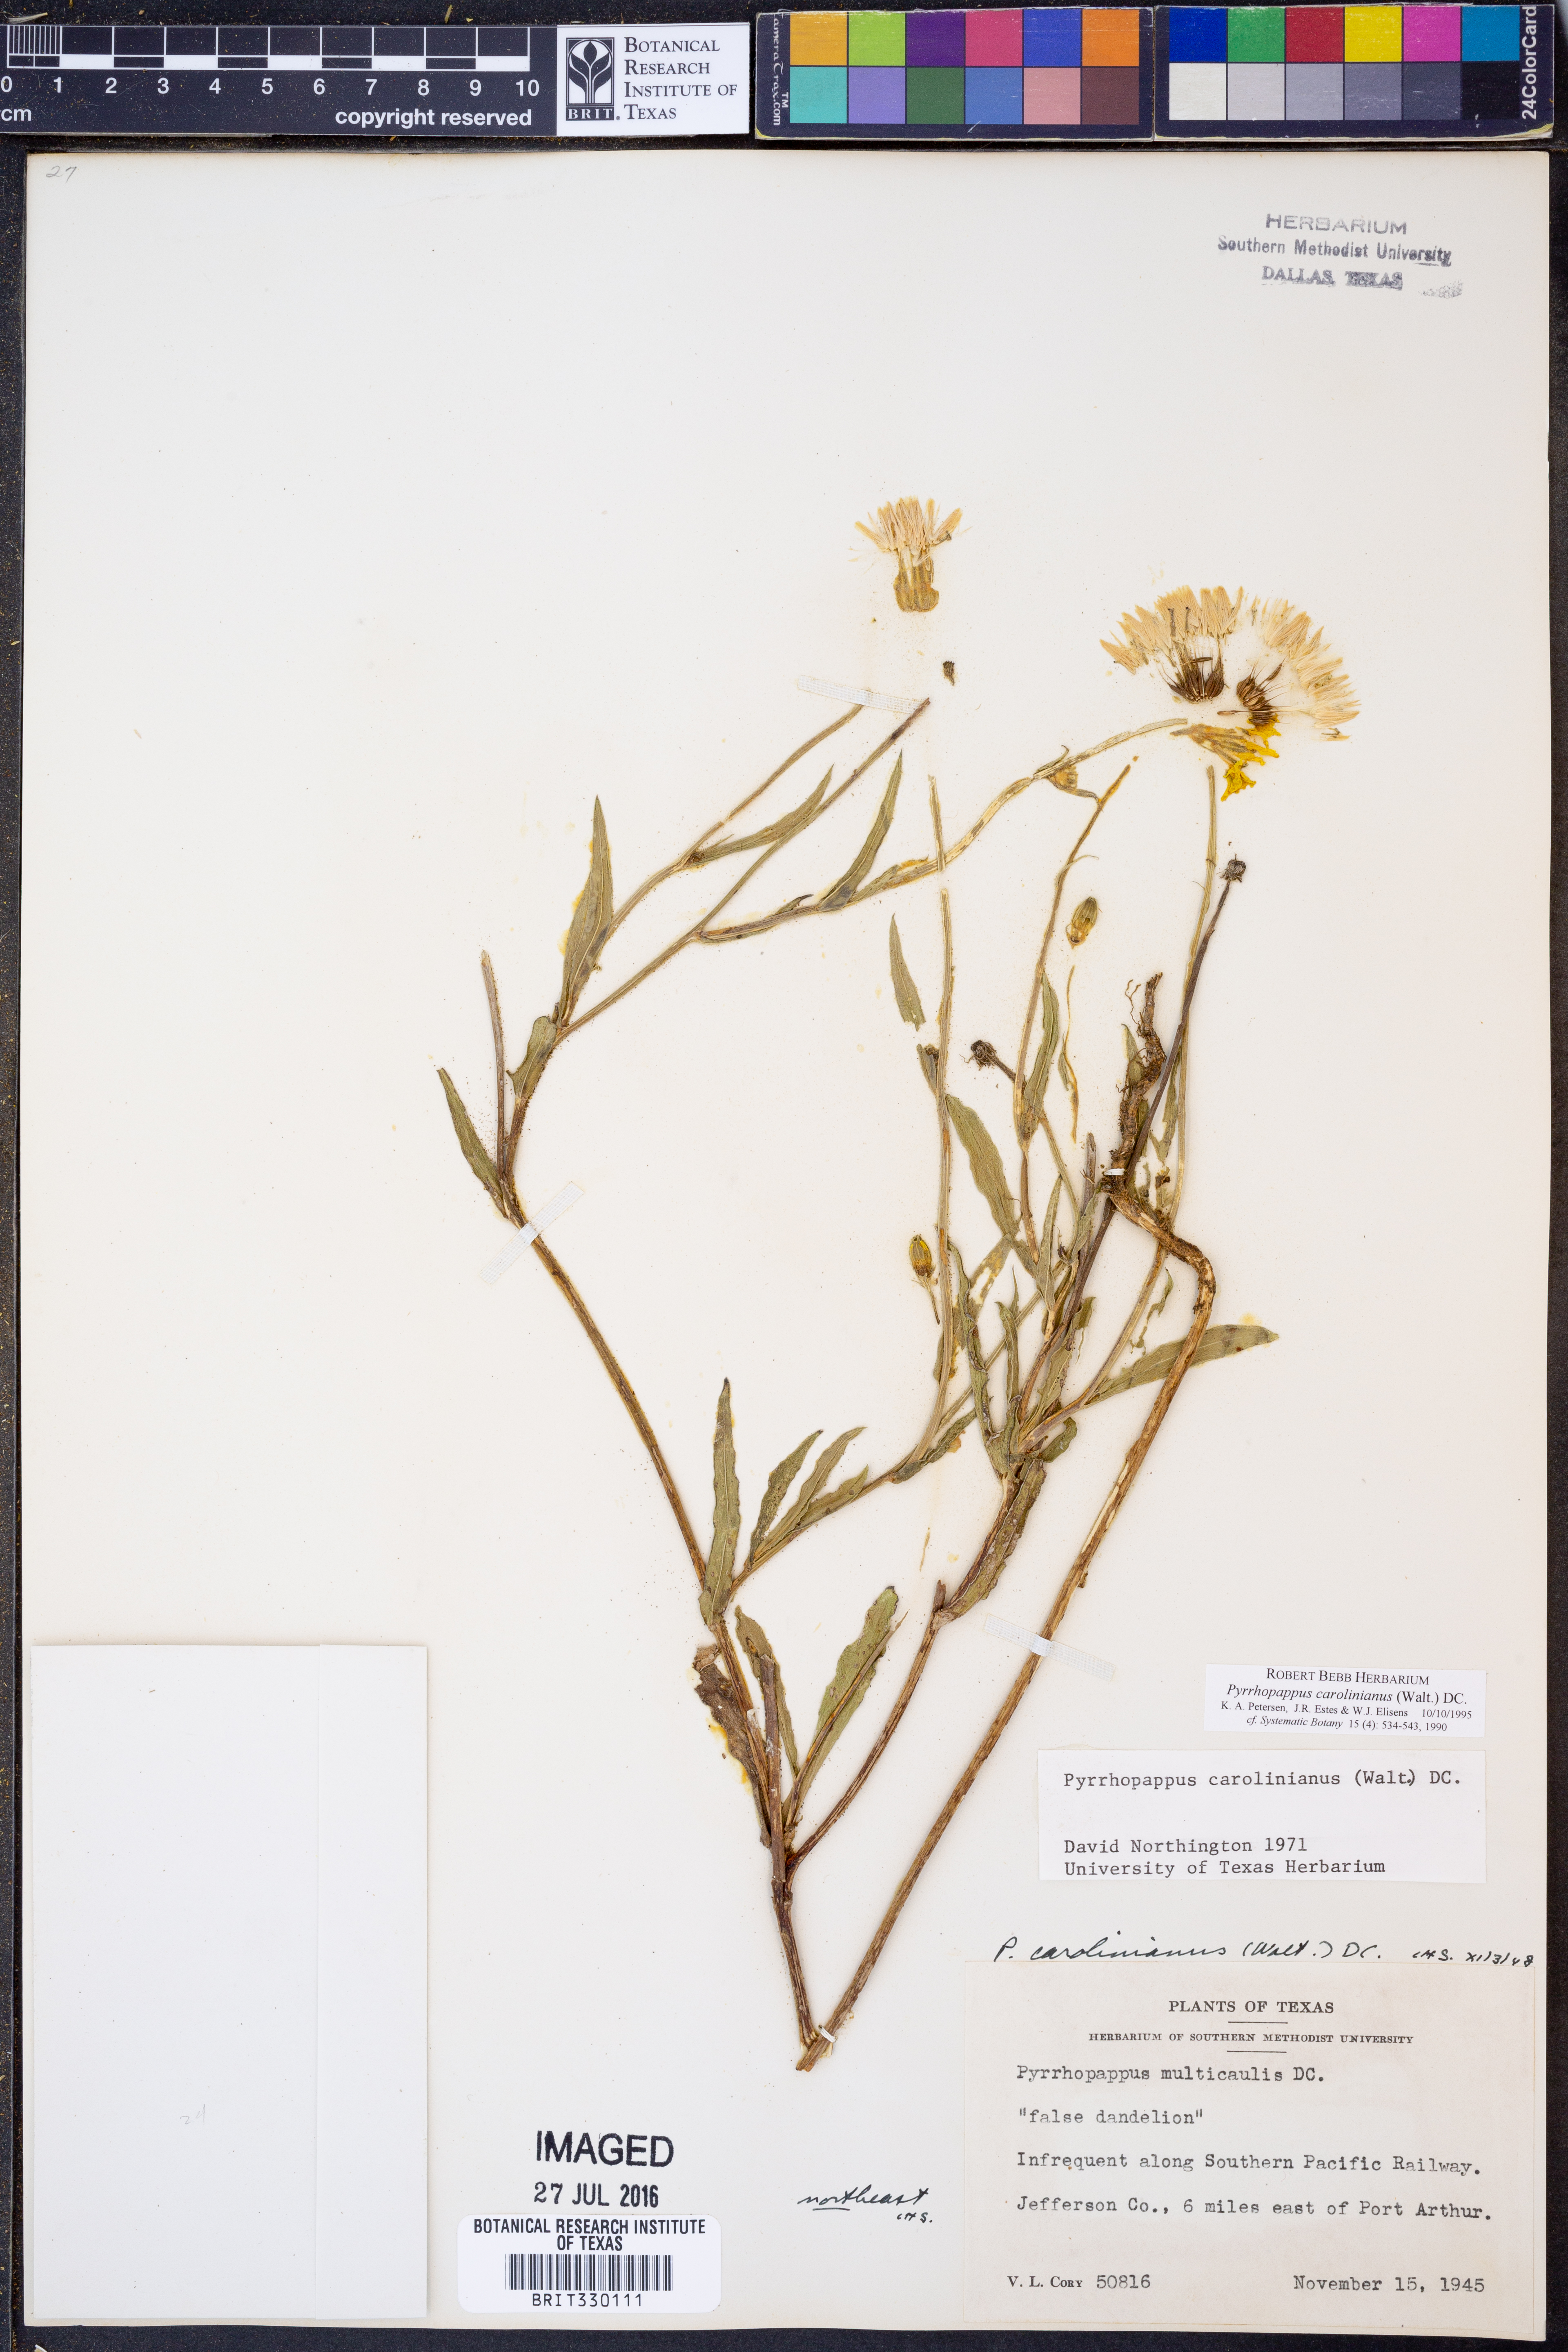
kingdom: Plantae
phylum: Tracheophyta
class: Magnoliopsida
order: Asterales
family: Asteraceae
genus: Pyrrhopappus
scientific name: Pyrrhopappus carolinianus
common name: Carolina desert-chicory
